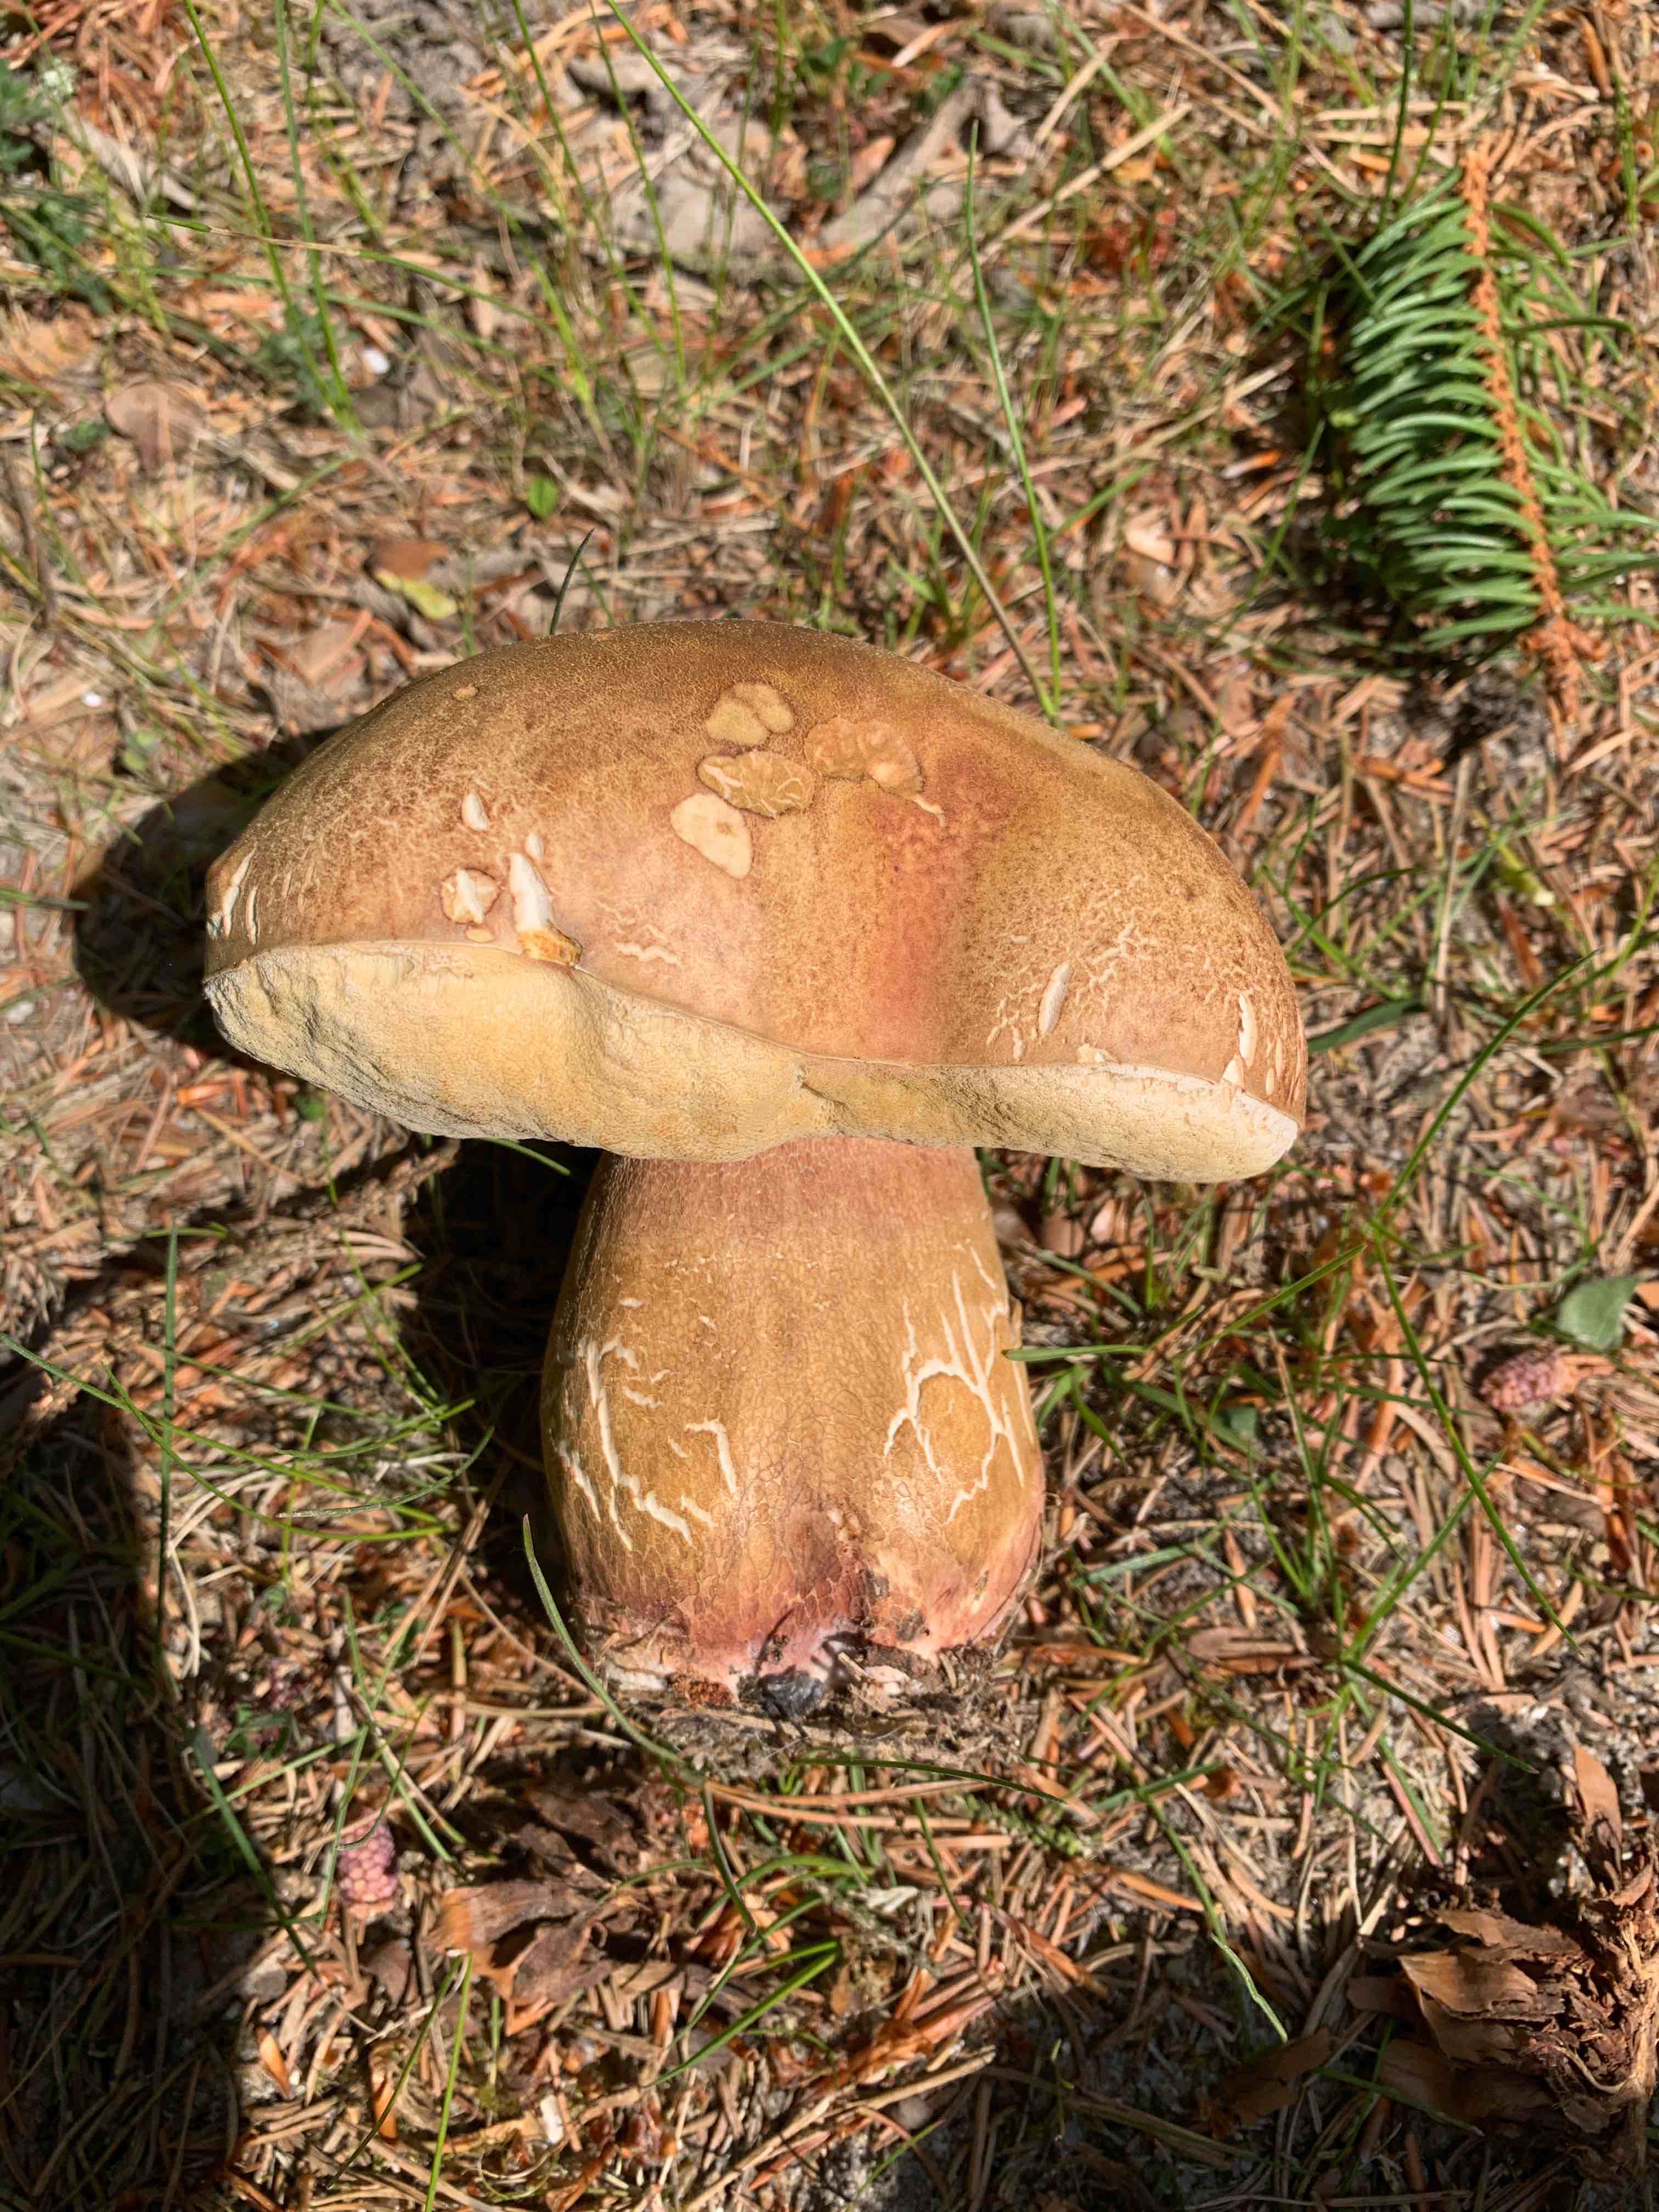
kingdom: Fungi
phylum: Basidiomycota
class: Agaricomycetes
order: Boletales
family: Boletaceae
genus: Boletus
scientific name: Boletus reticulatus
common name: sommer-rørhat
